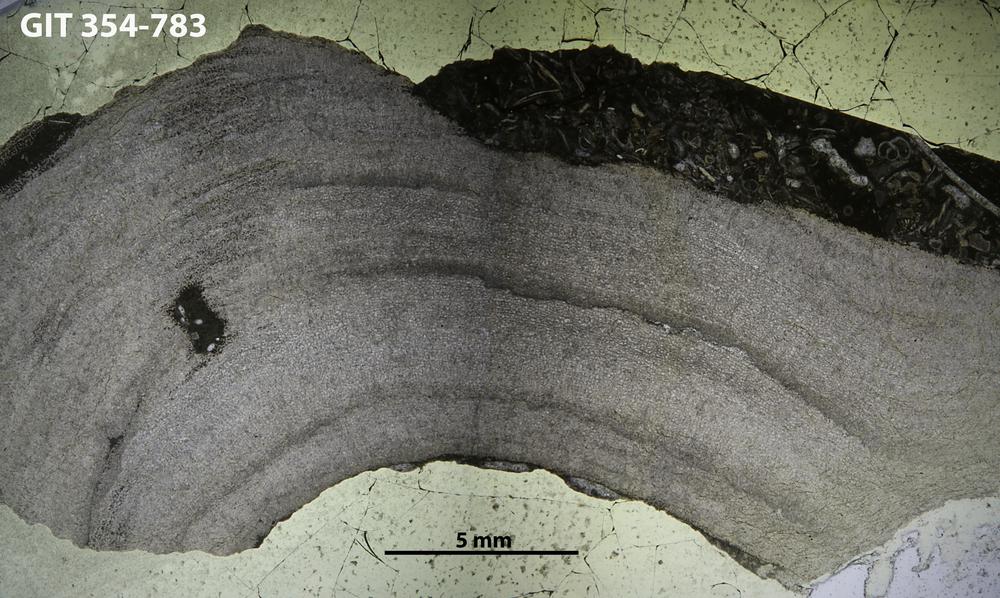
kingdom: Animalia
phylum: Porifera
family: Densastromatidae
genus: Araneosustroma
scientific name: Araneosustroma
